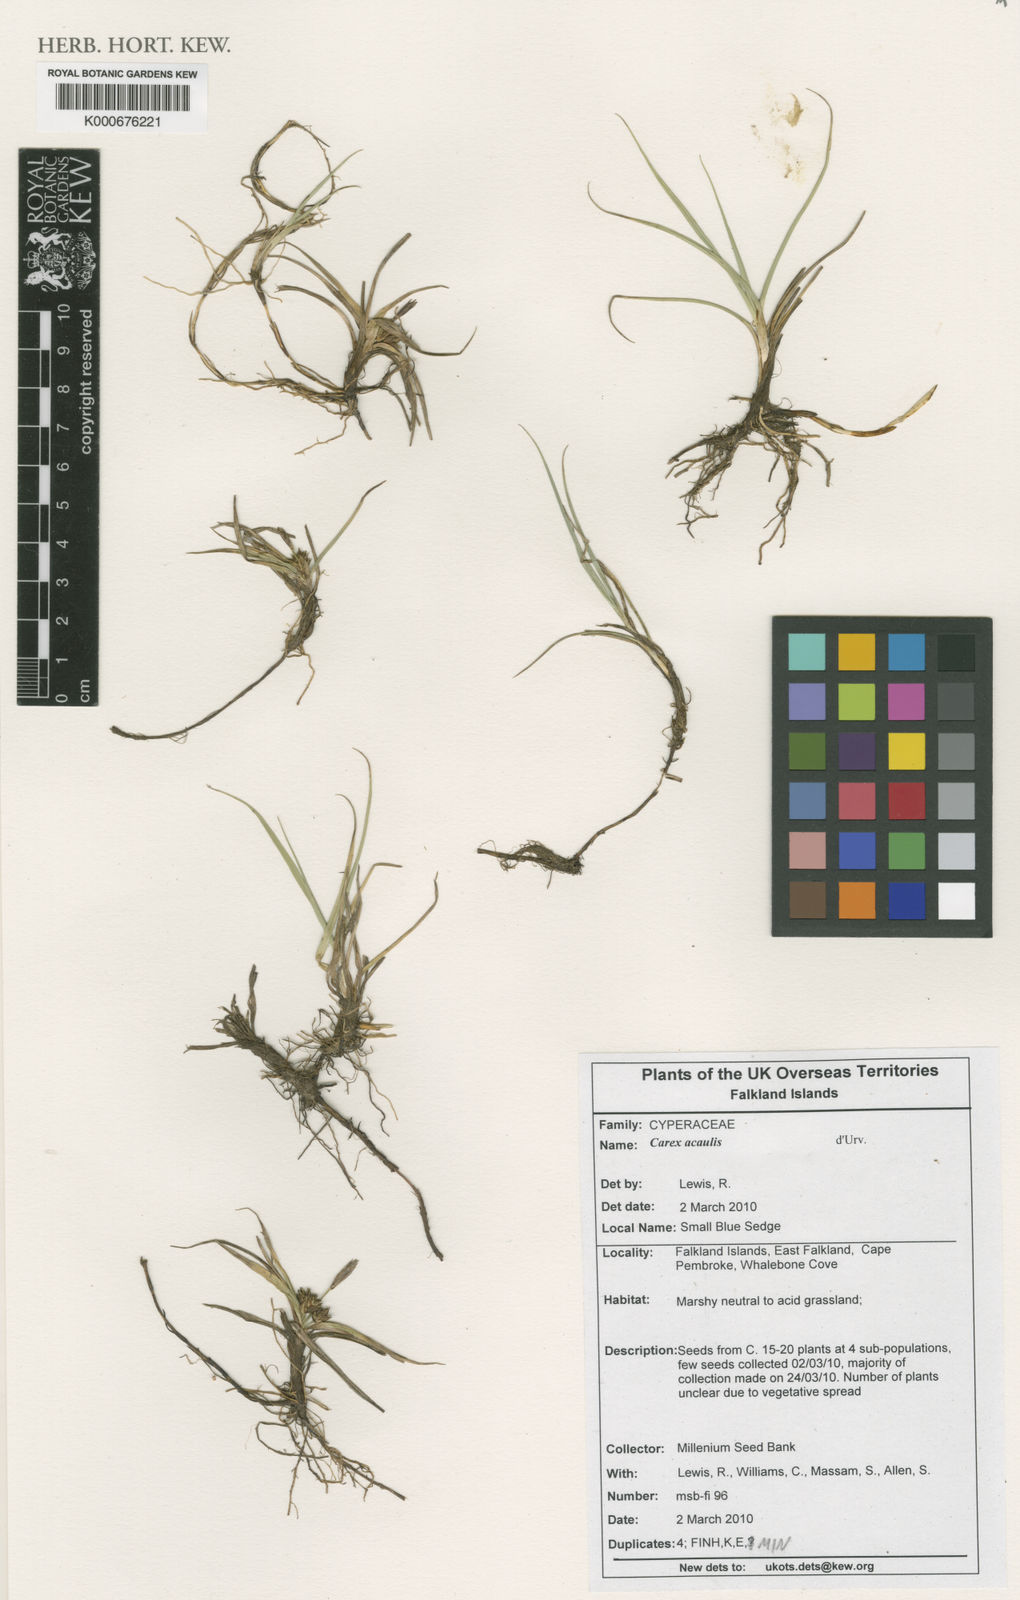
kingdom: Plantae
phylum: Tracheophyta
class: Liliopsida
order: Poales
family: Cyperaceae
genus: Carex
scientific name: Carex acaulis
